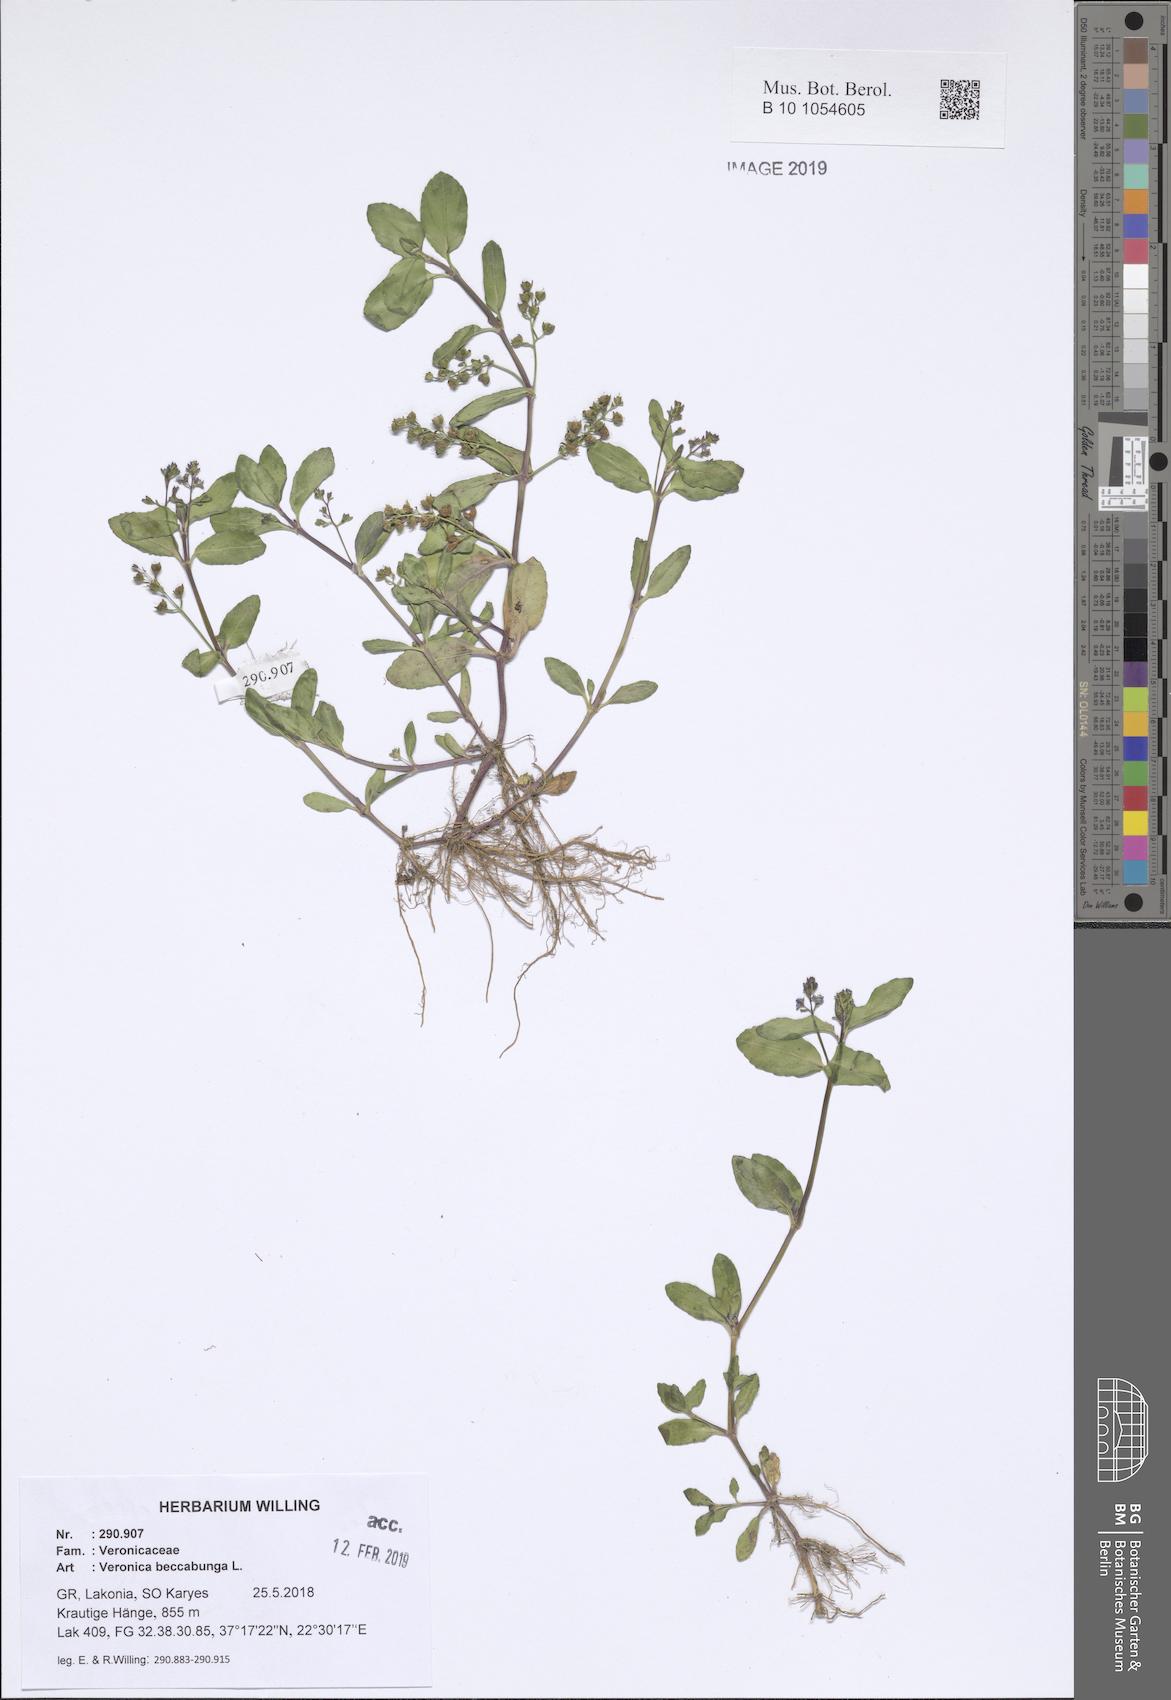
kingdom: Plantae
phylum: Tracheophyta
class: Magnoliopsida
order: Lamiales
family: Plantaginaceae
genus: Veronica
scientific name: Veronica beccabunga
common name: Brooklime
